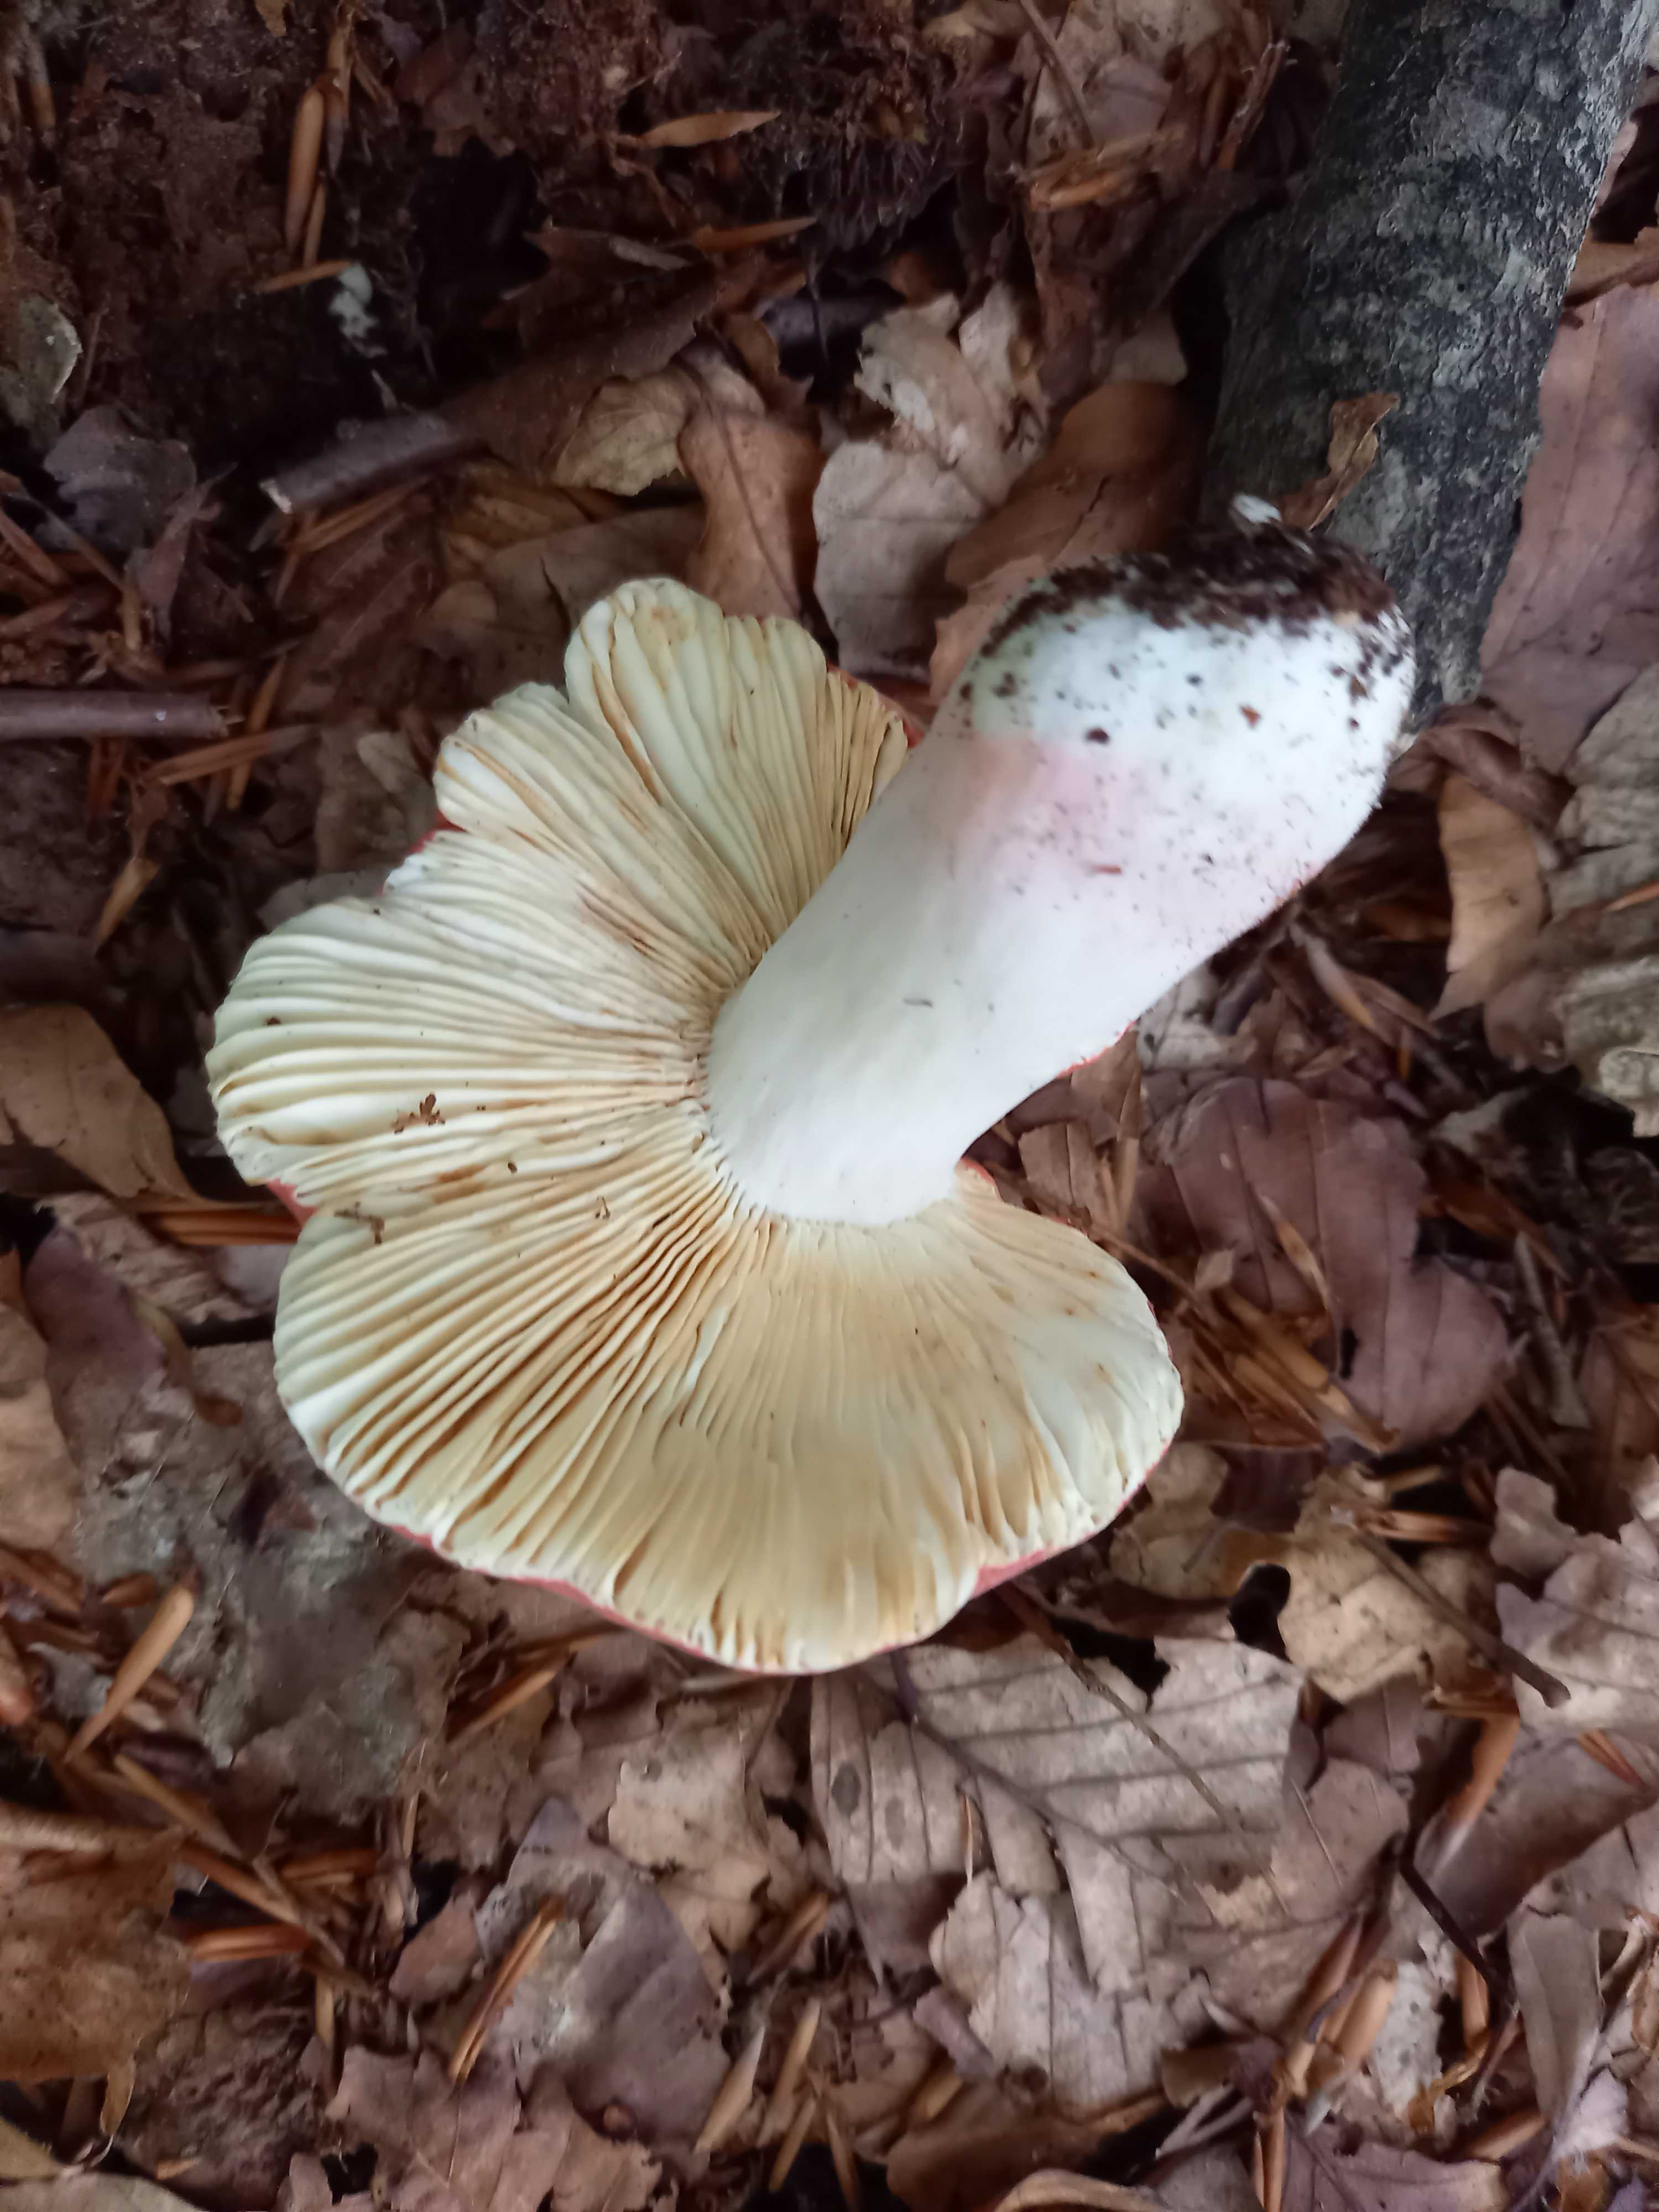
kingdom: Fungi
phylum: Basidiomycota
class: Agaricomycetes
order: Russulales
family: Russulaceae
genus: Russula
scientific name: Russula rosea
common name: fastkødet skørhat
